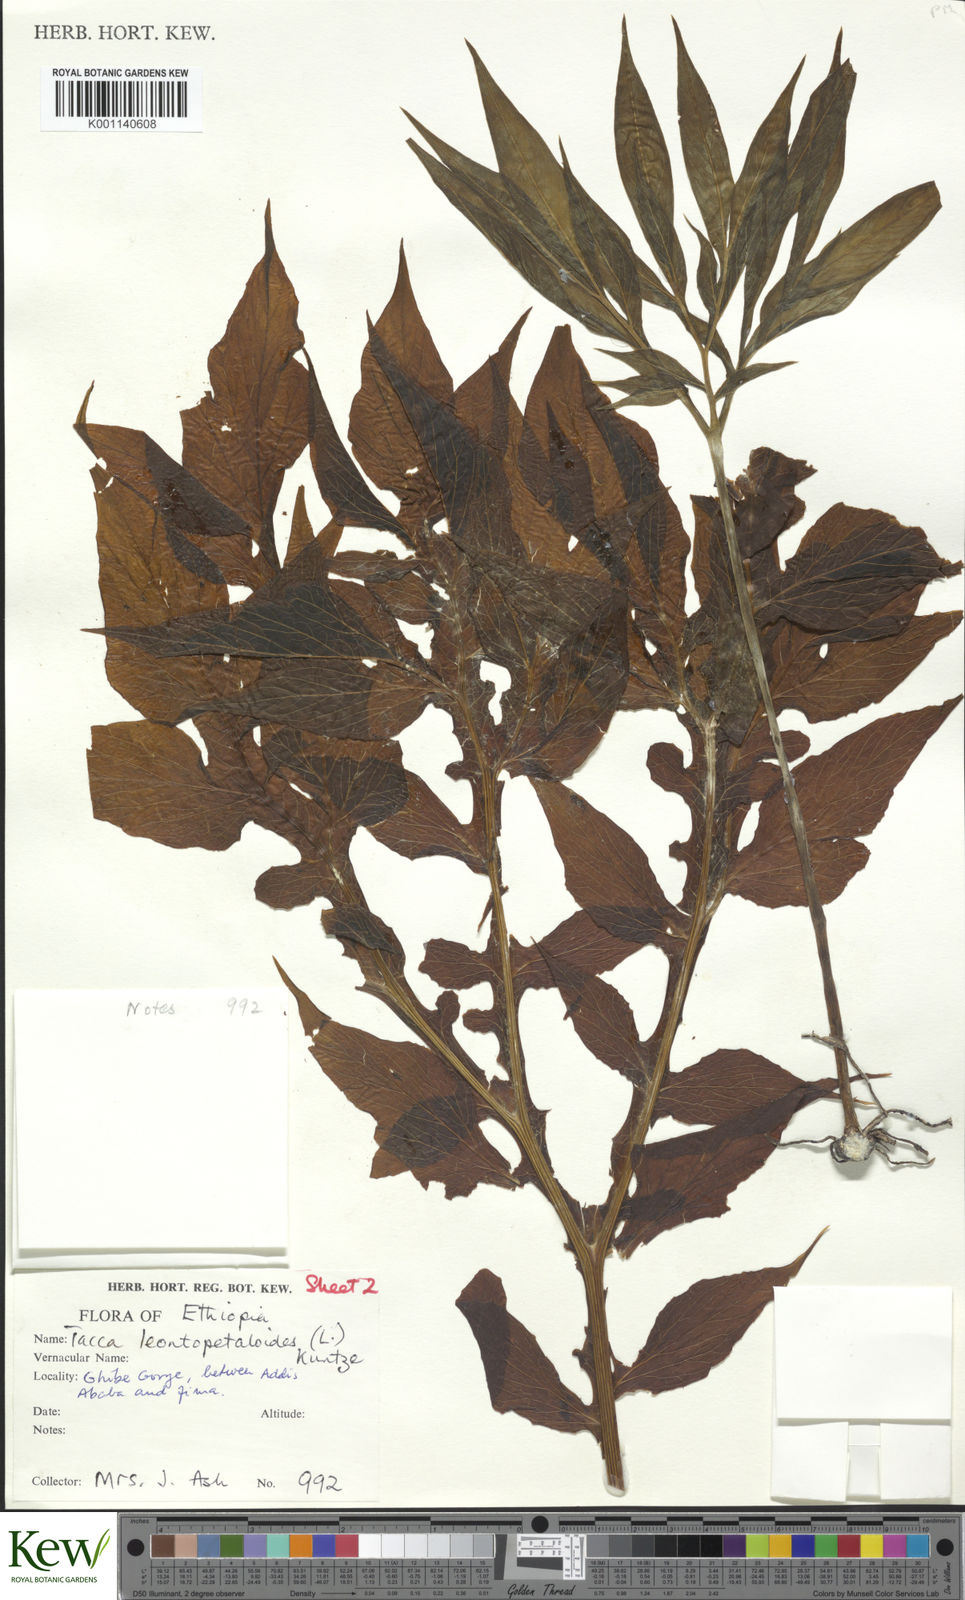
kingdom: Plantae
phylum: Tracheophyta
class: Liliopsida
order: Dioscoreales
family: Dioscoreaceae
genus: Tacca
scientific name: Tacca leontopetaloides
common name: Arrowroot
